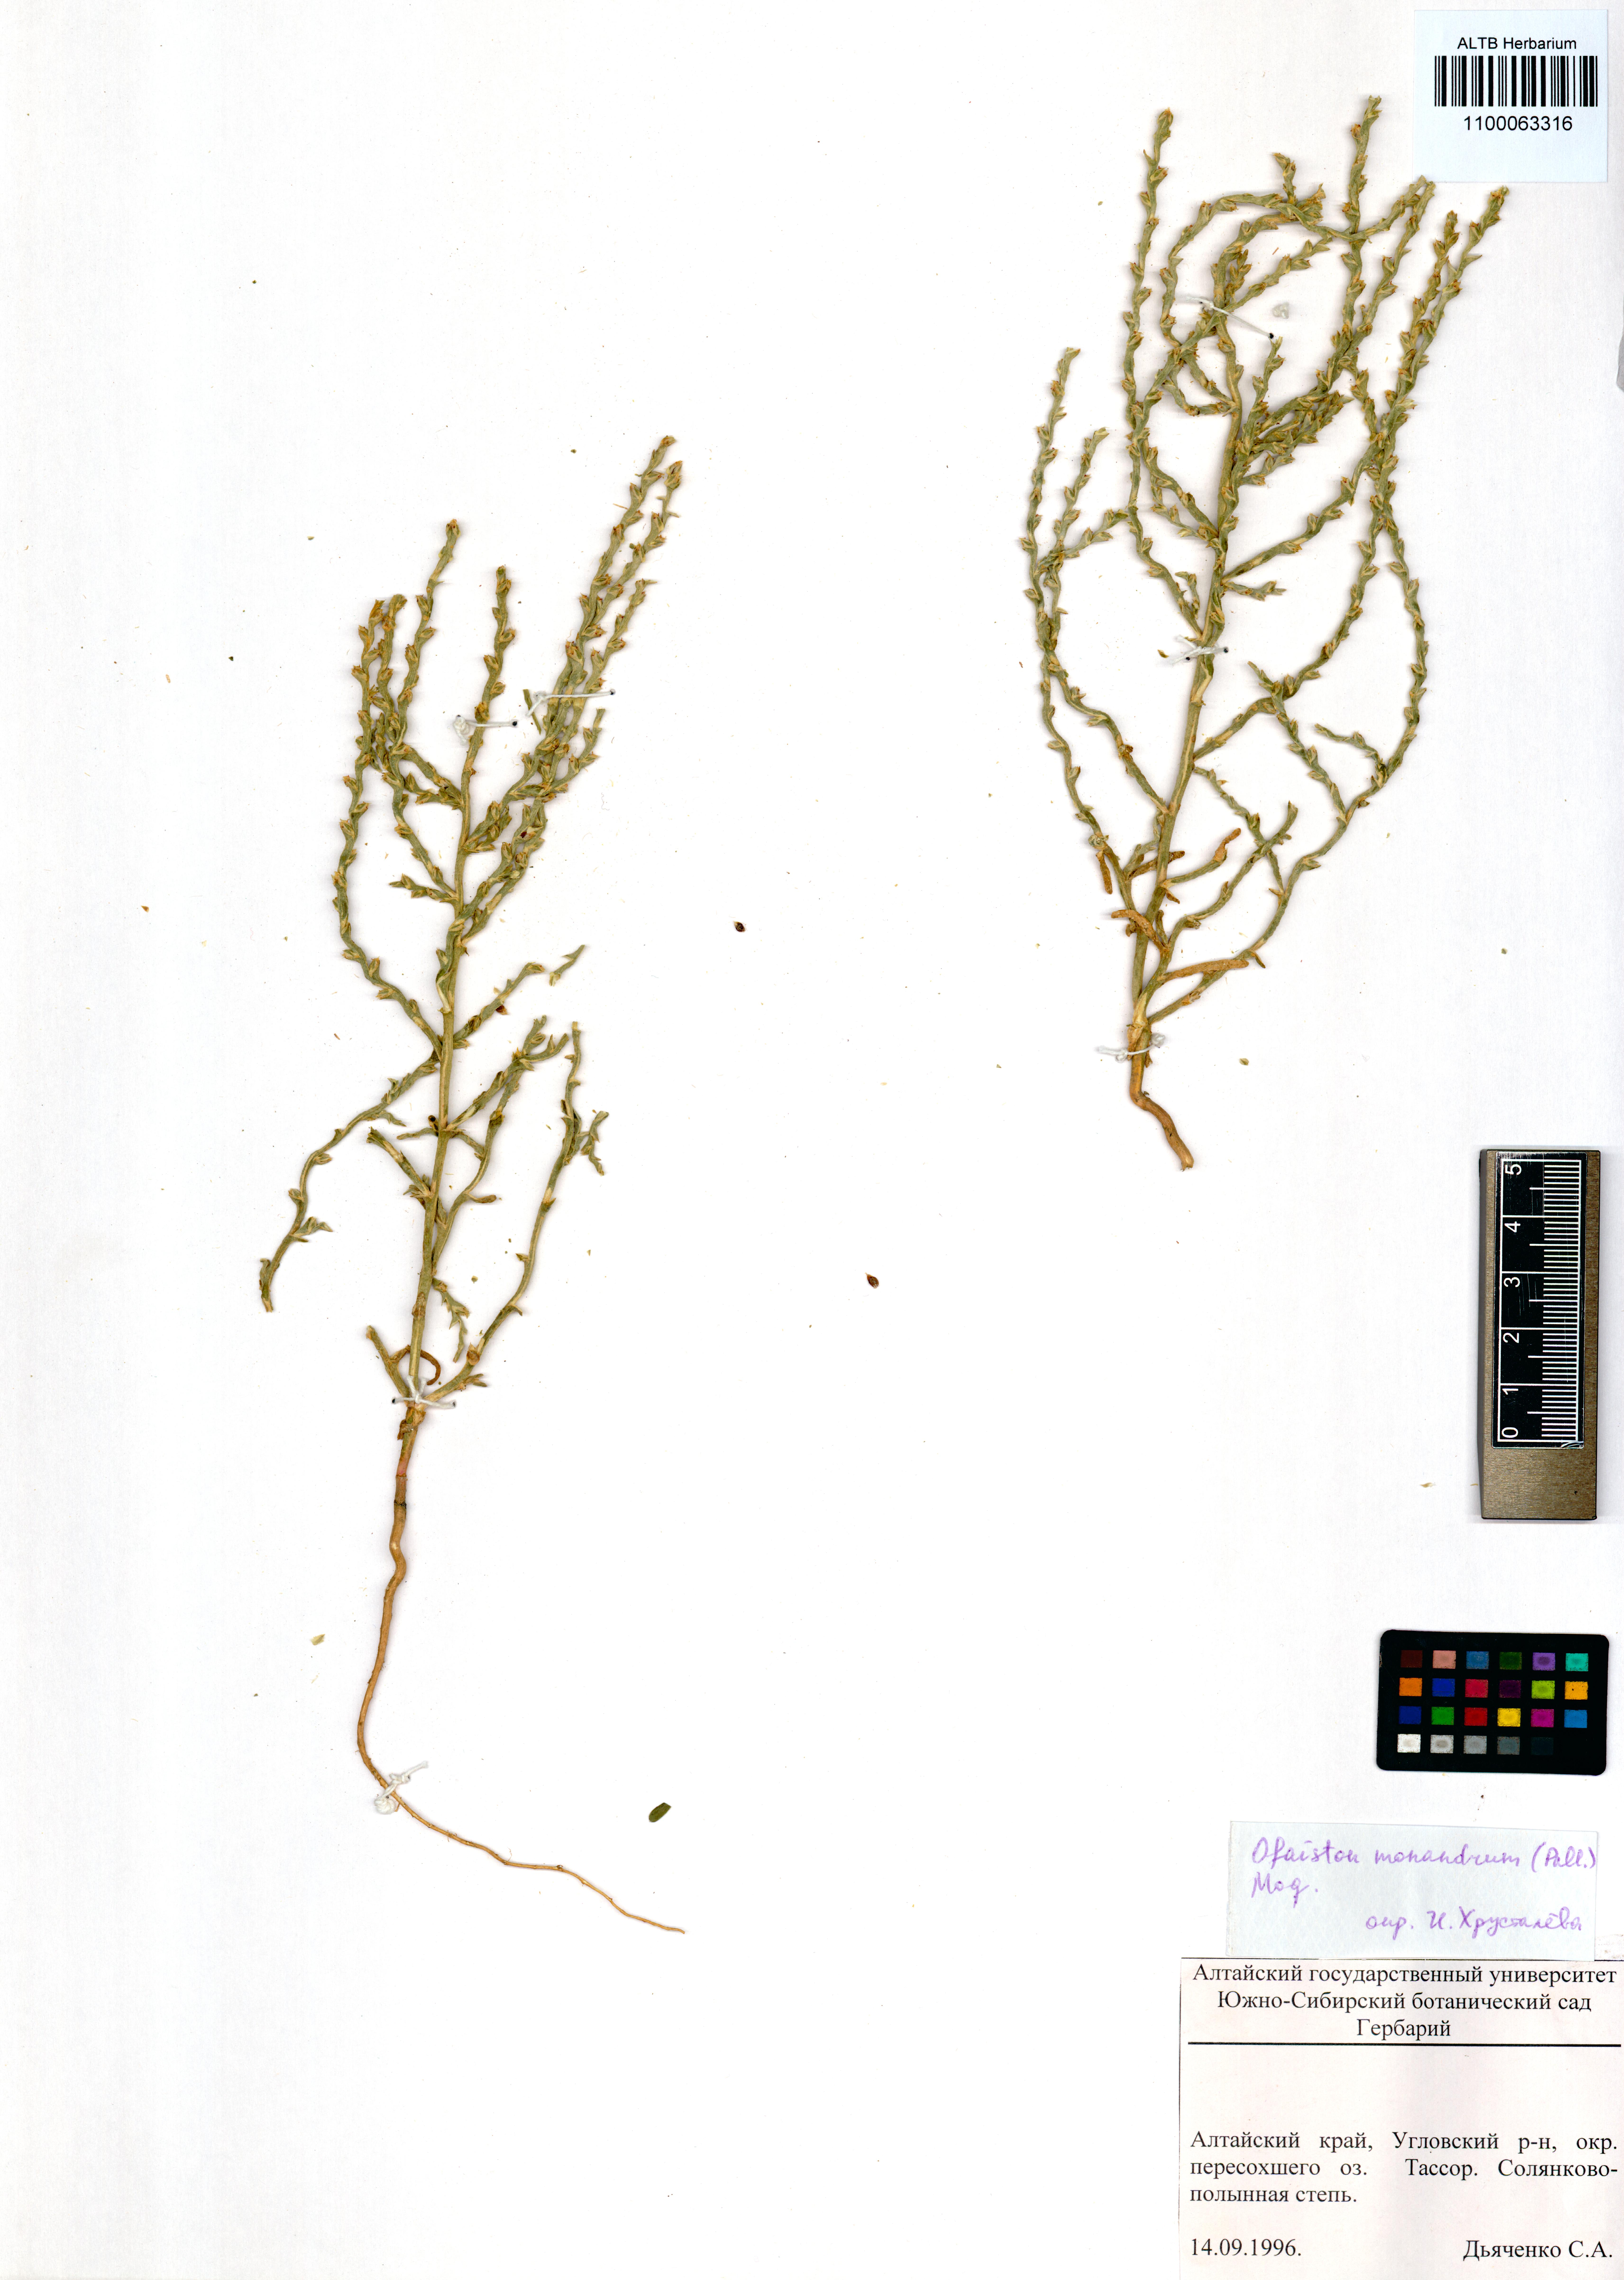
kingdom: Plantae
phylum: Tracheophyta
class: Magnoliopsida
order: Caryophyllales
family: Amaranthaceae
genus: Ofaiston
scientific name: Ofaiston monandrum
